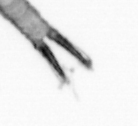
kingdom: Animalia
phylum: Arthropoda
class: Copepoda
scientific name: Copepoda
